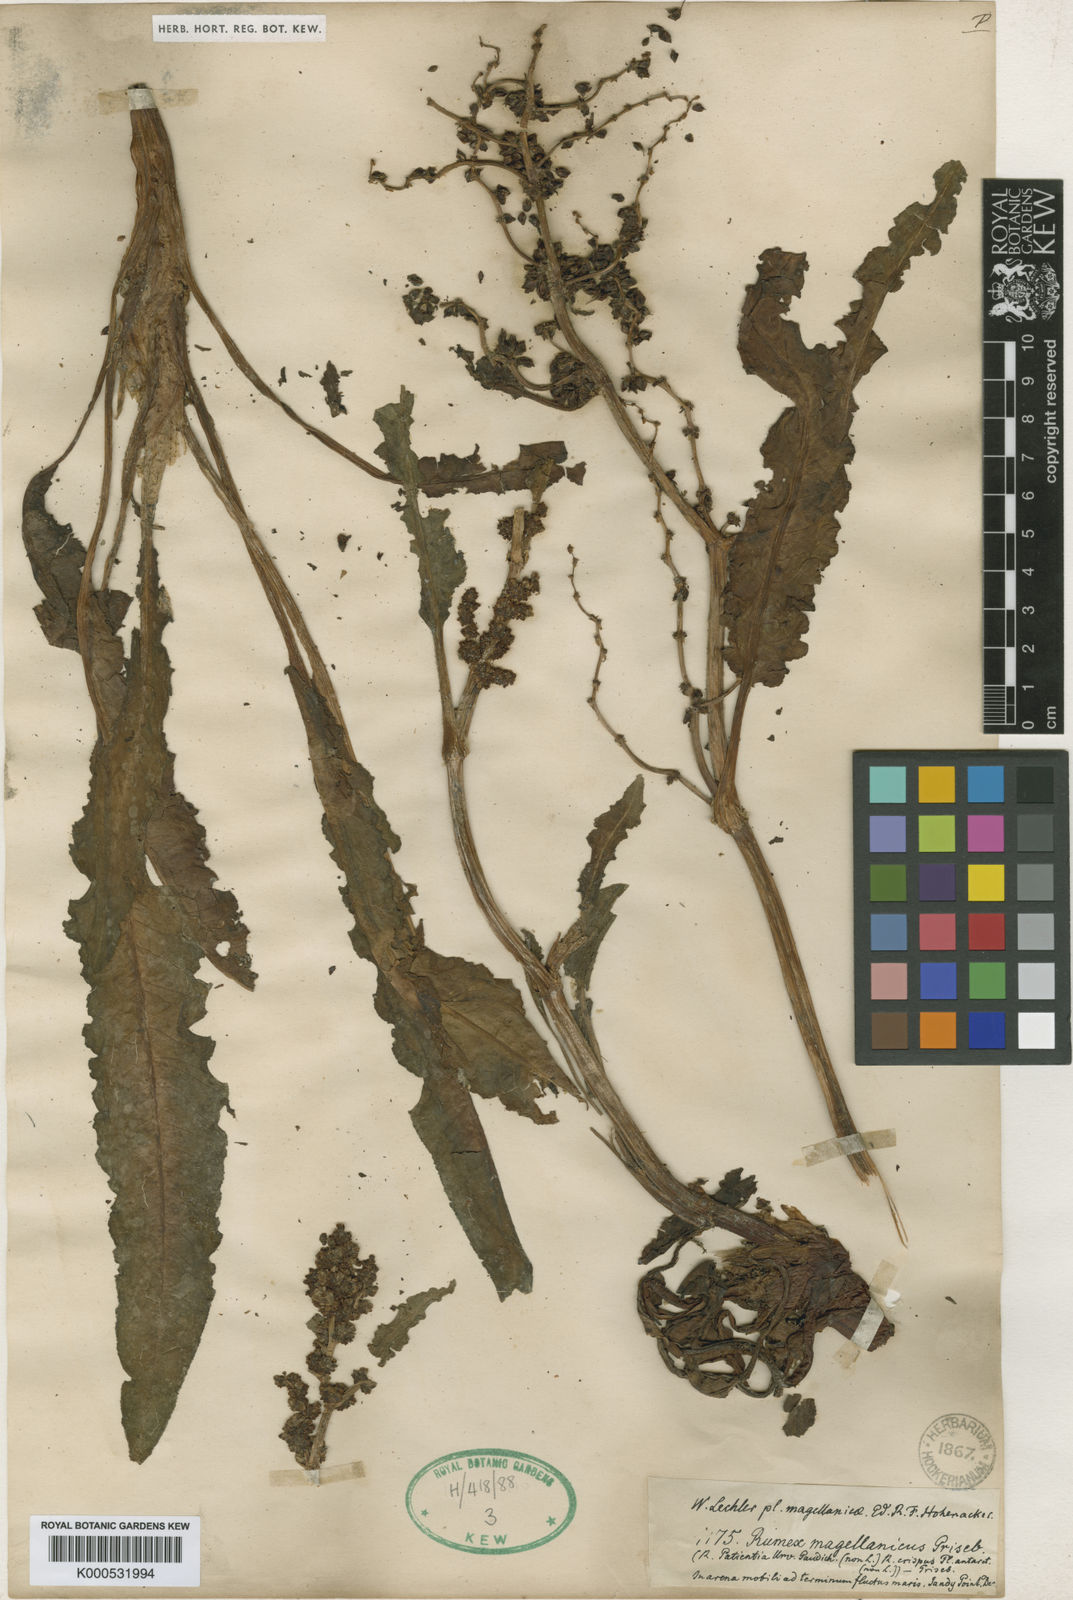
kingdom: Plantae
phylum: Tracheophyta
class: Magnoliopsida
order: Caryophyllales
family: Polygonaceae
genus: Rumex
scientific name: Rumex darwinianus
